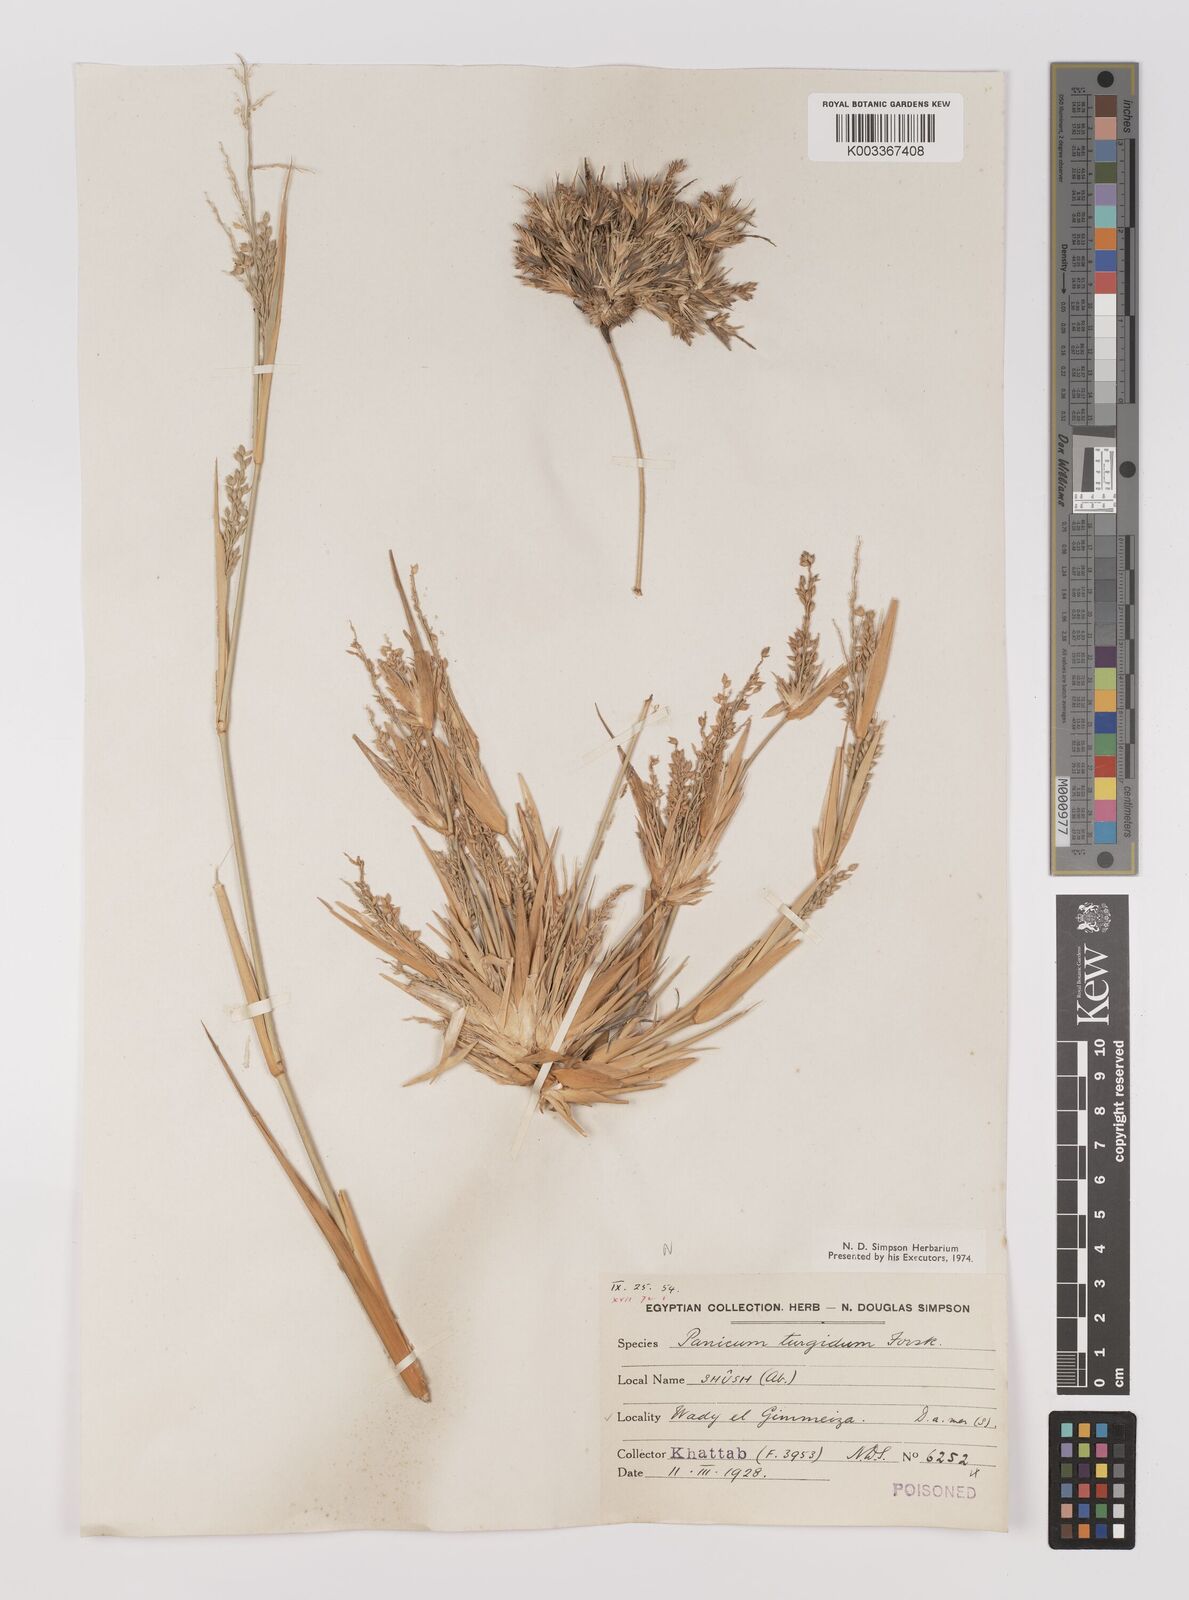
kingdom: Plantae
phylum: Tracheophyta
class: Liliopsida
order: Poales
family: Poaceae
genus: Panicum
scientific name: Panicum turgidum
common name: Desert grass
